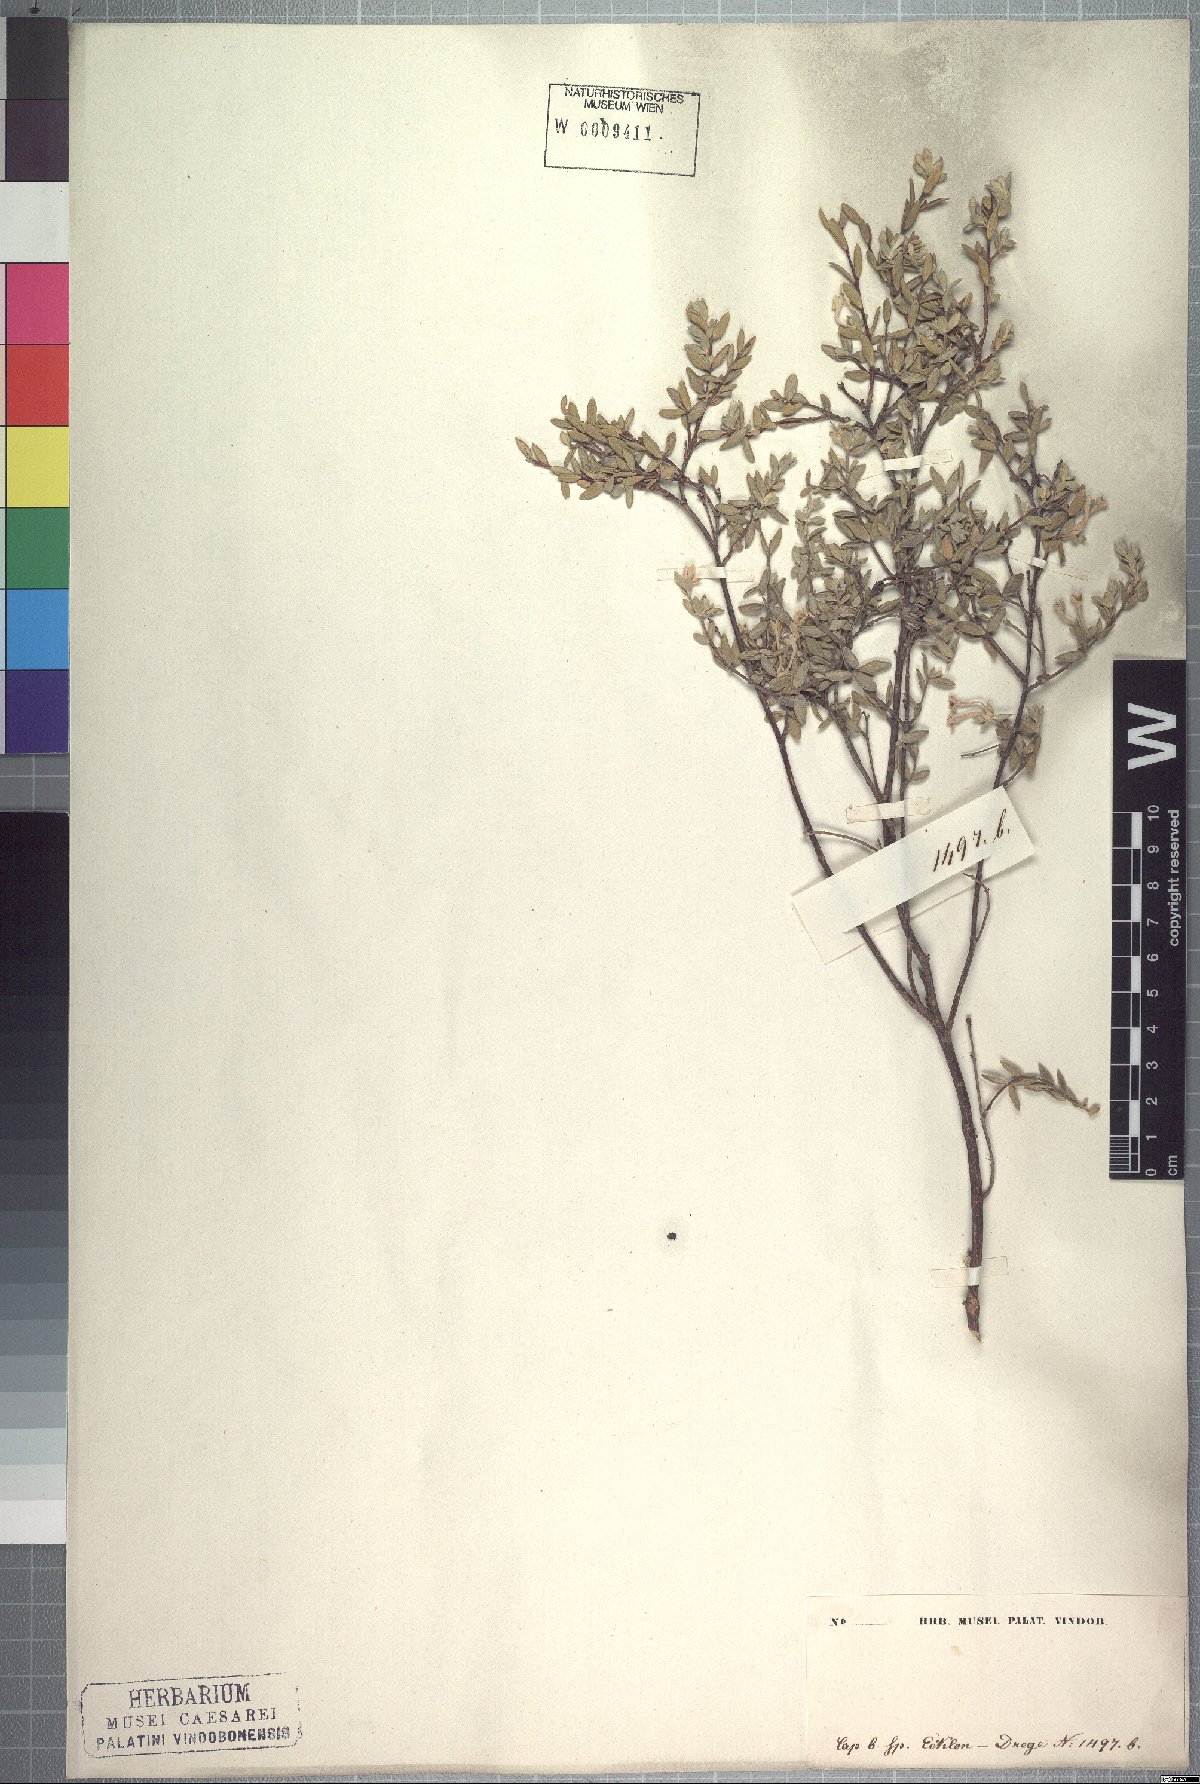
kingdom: Plantae
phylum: Tracheophyta
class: Magnoliopsida
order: Malvales
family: Thymelaeaceae
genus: Gnidia
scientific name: Gnidia imbricata
